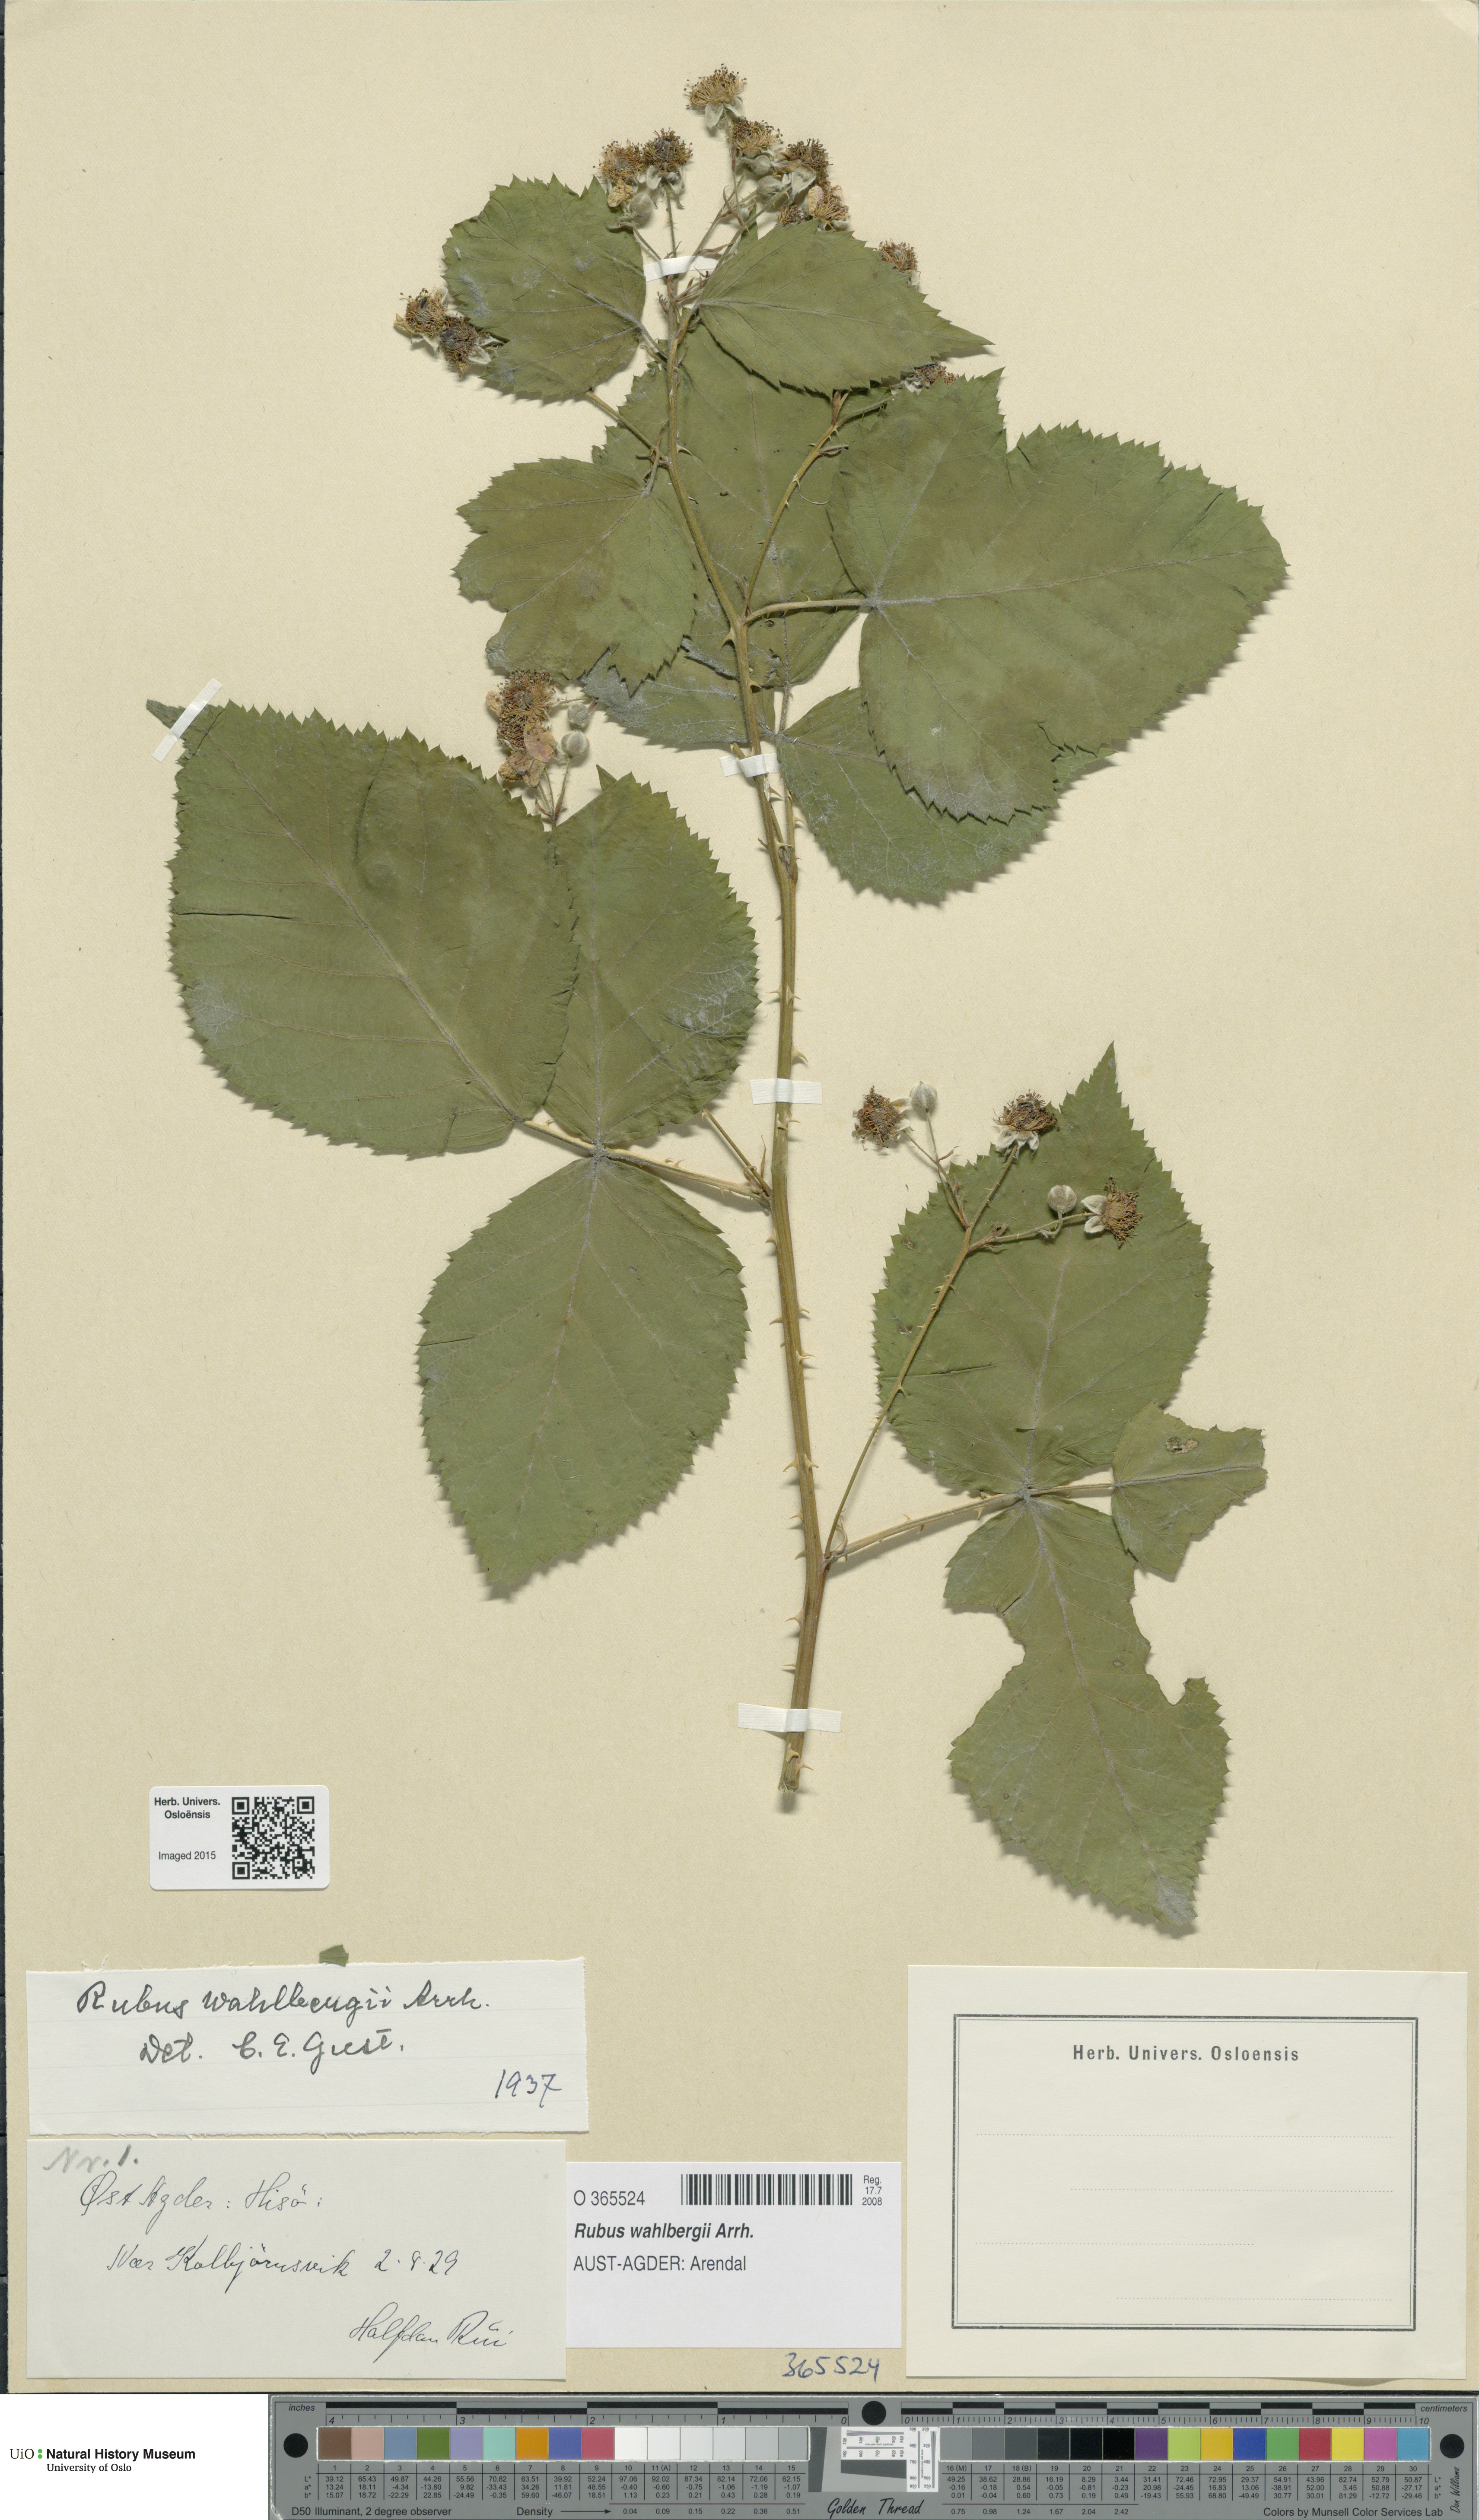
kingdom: Plantae
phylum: Tracheophyta
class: Magnoliopsida
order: Rosales
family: Rosaceae
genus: Rubus
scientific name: Rubus wahlbergii
